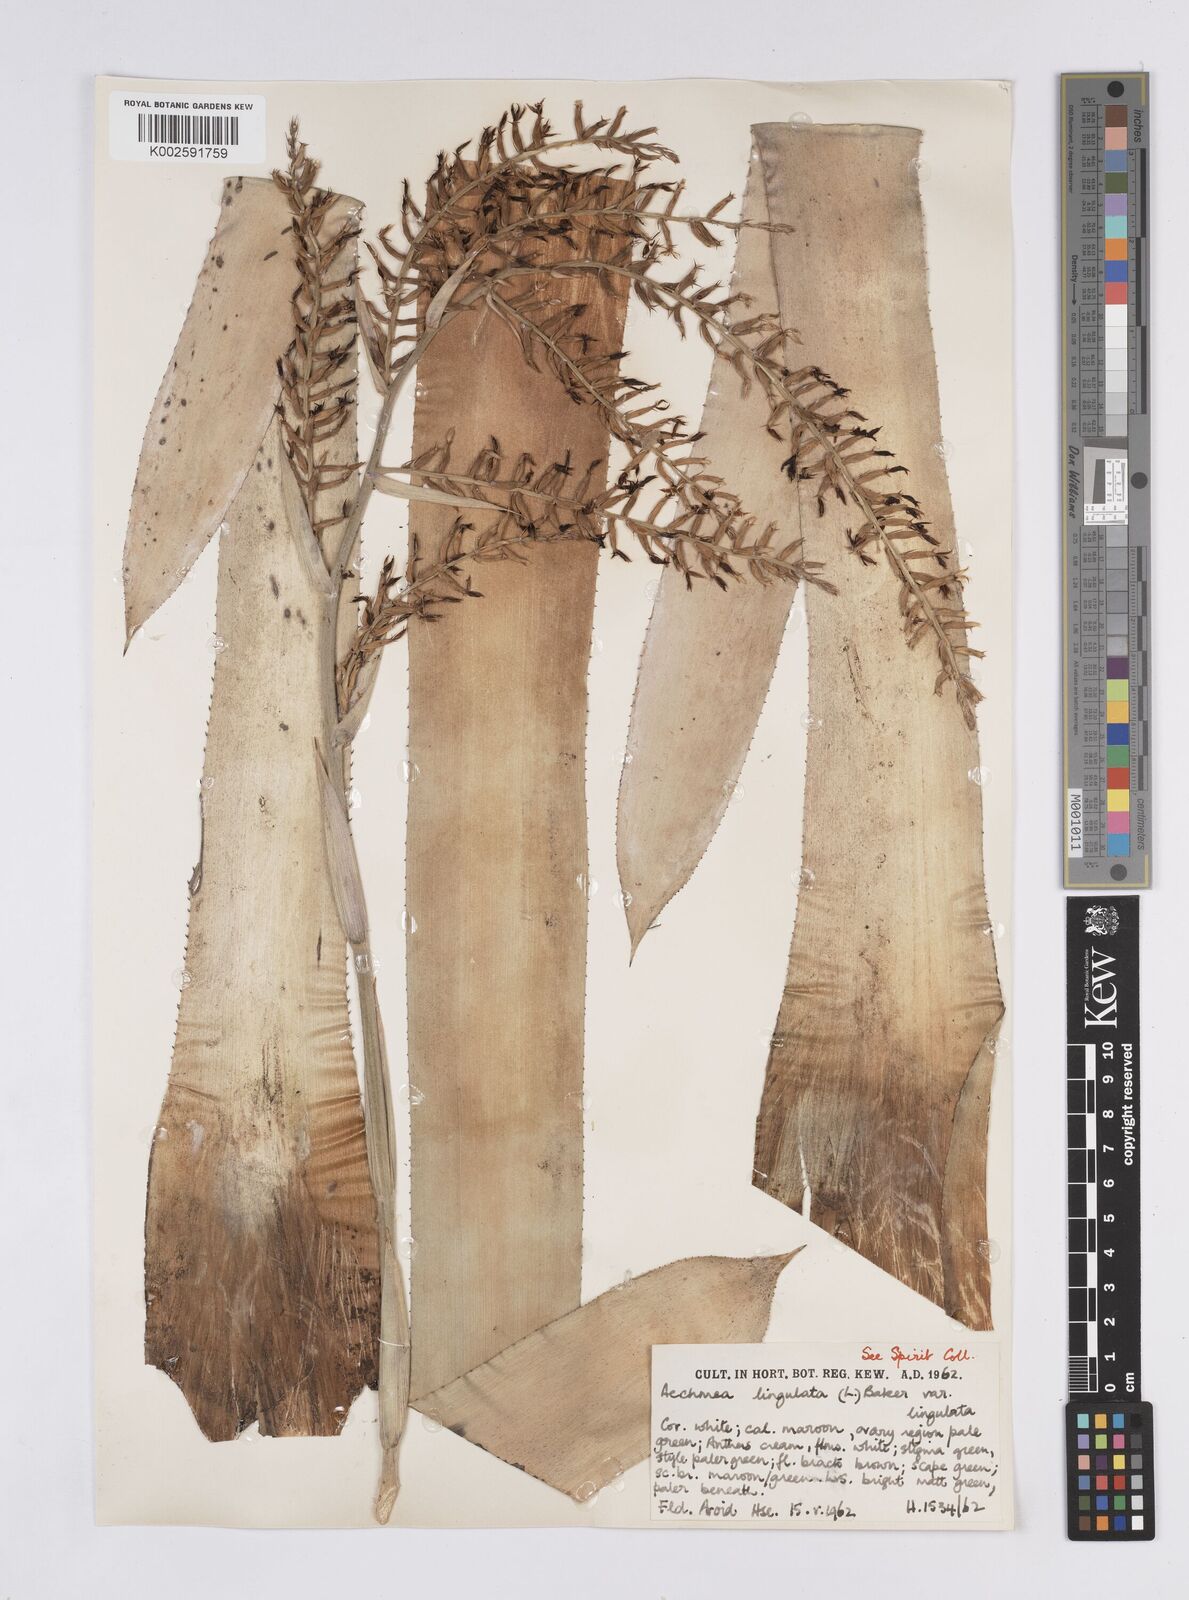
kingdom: Plantae
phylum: Tracheophyta
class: Liliopsida
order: Poales
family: Bromeliaceae
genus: Wittmackia
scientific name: Wittmackia lingulata
